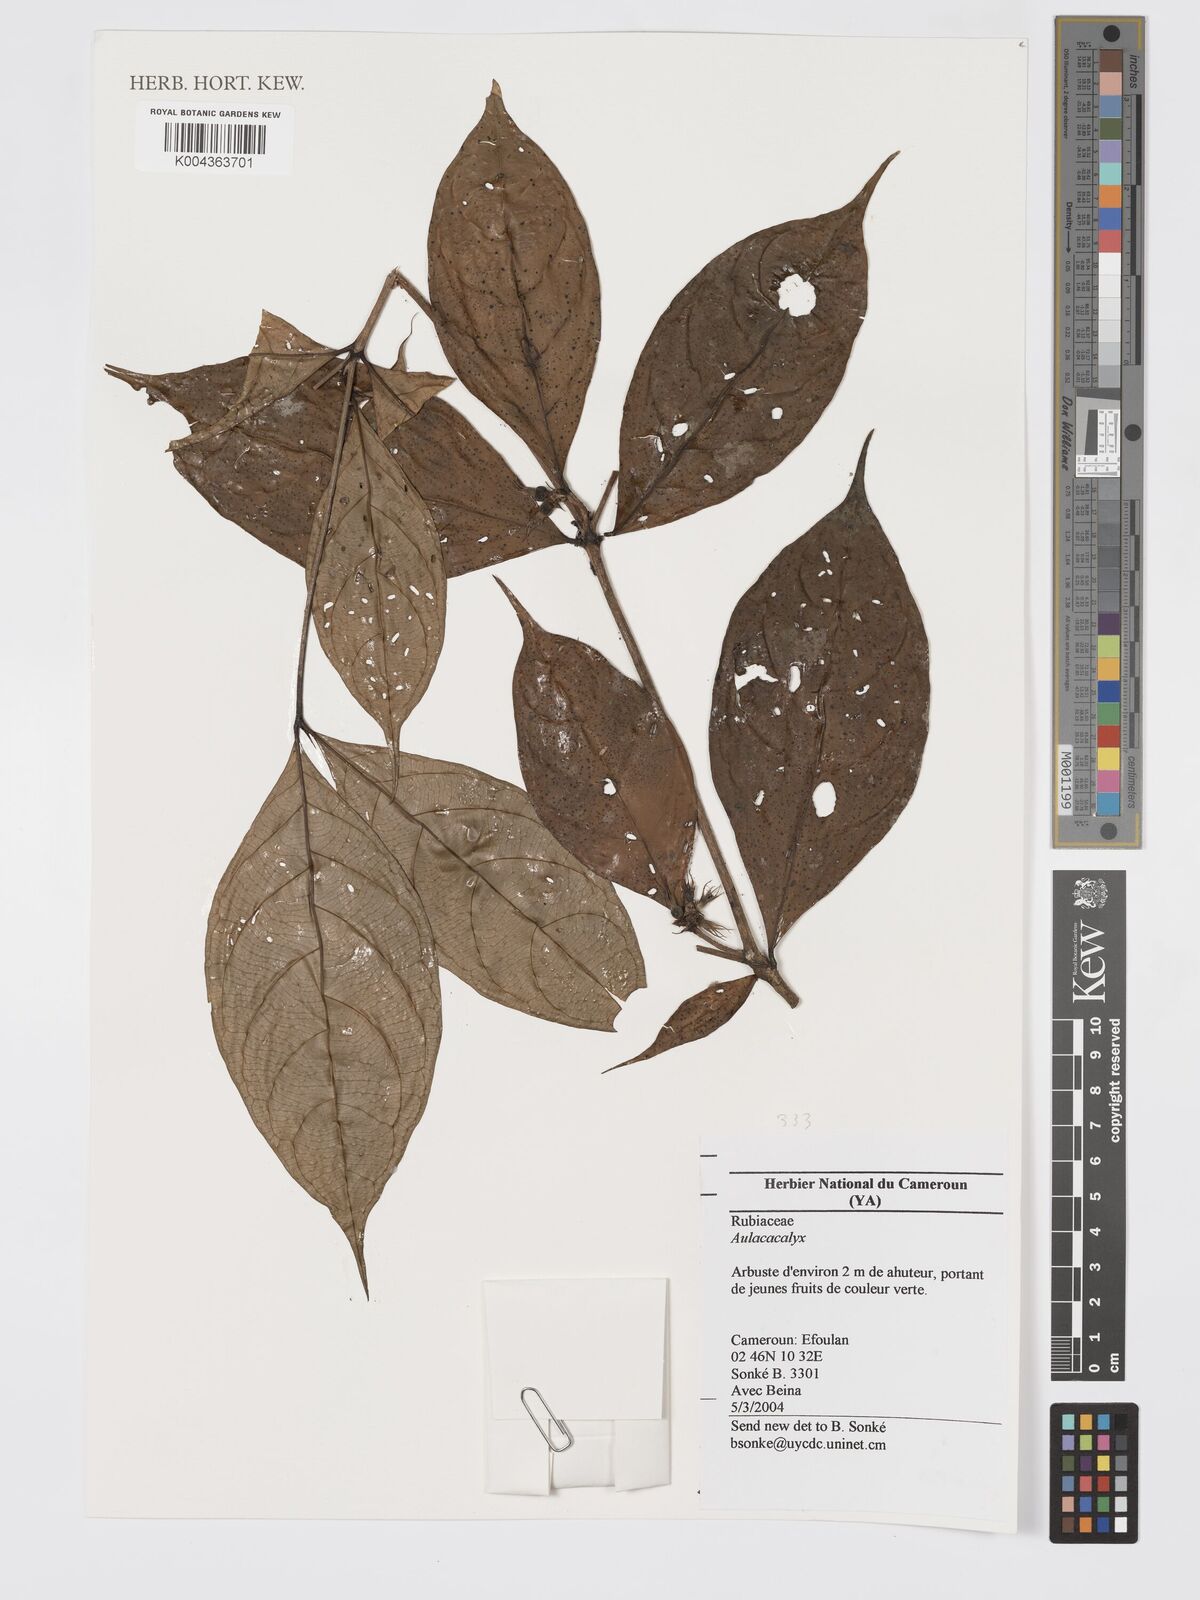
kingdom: Plantae
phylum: Tracheophyta
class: Magnoliopsida
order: Gentianales
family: Rubiaceae
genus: Aulacocalyx
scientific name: Aulacocalyx jasminiflora
